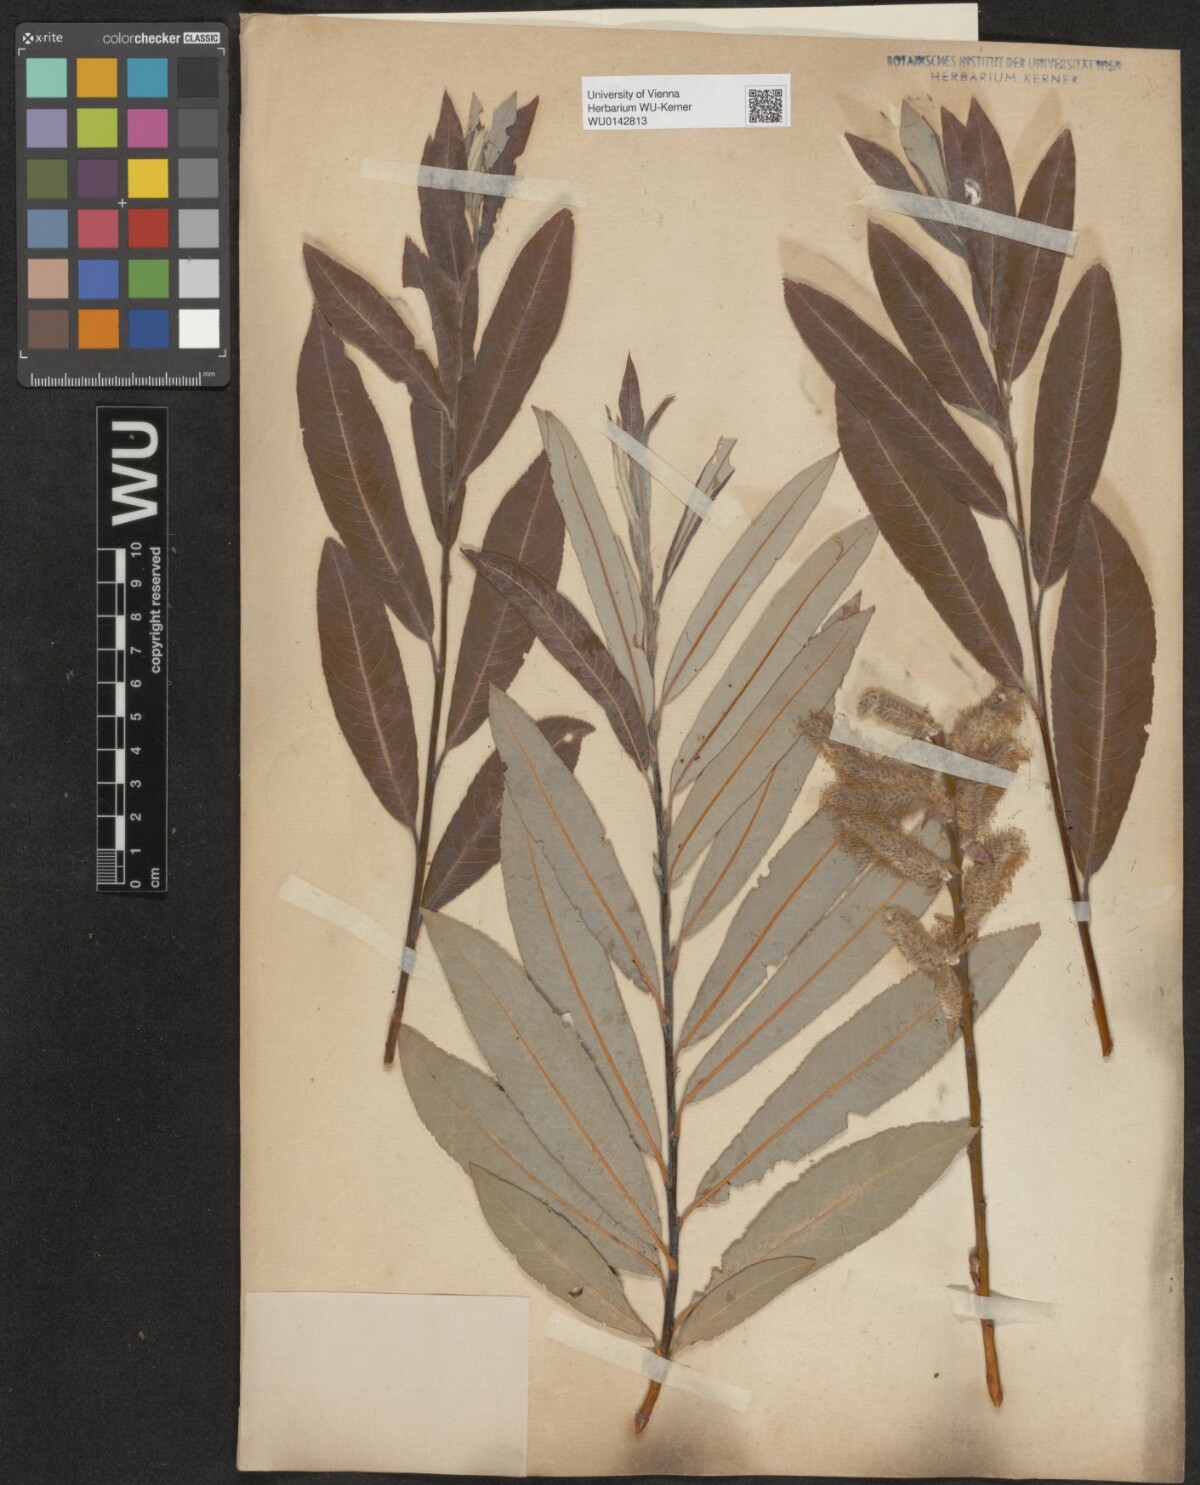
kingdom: Plantae
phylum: Tracheophyta
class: Magnoliopsida
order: Malpighiales
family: Salicaceae
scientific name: Salicaceae
